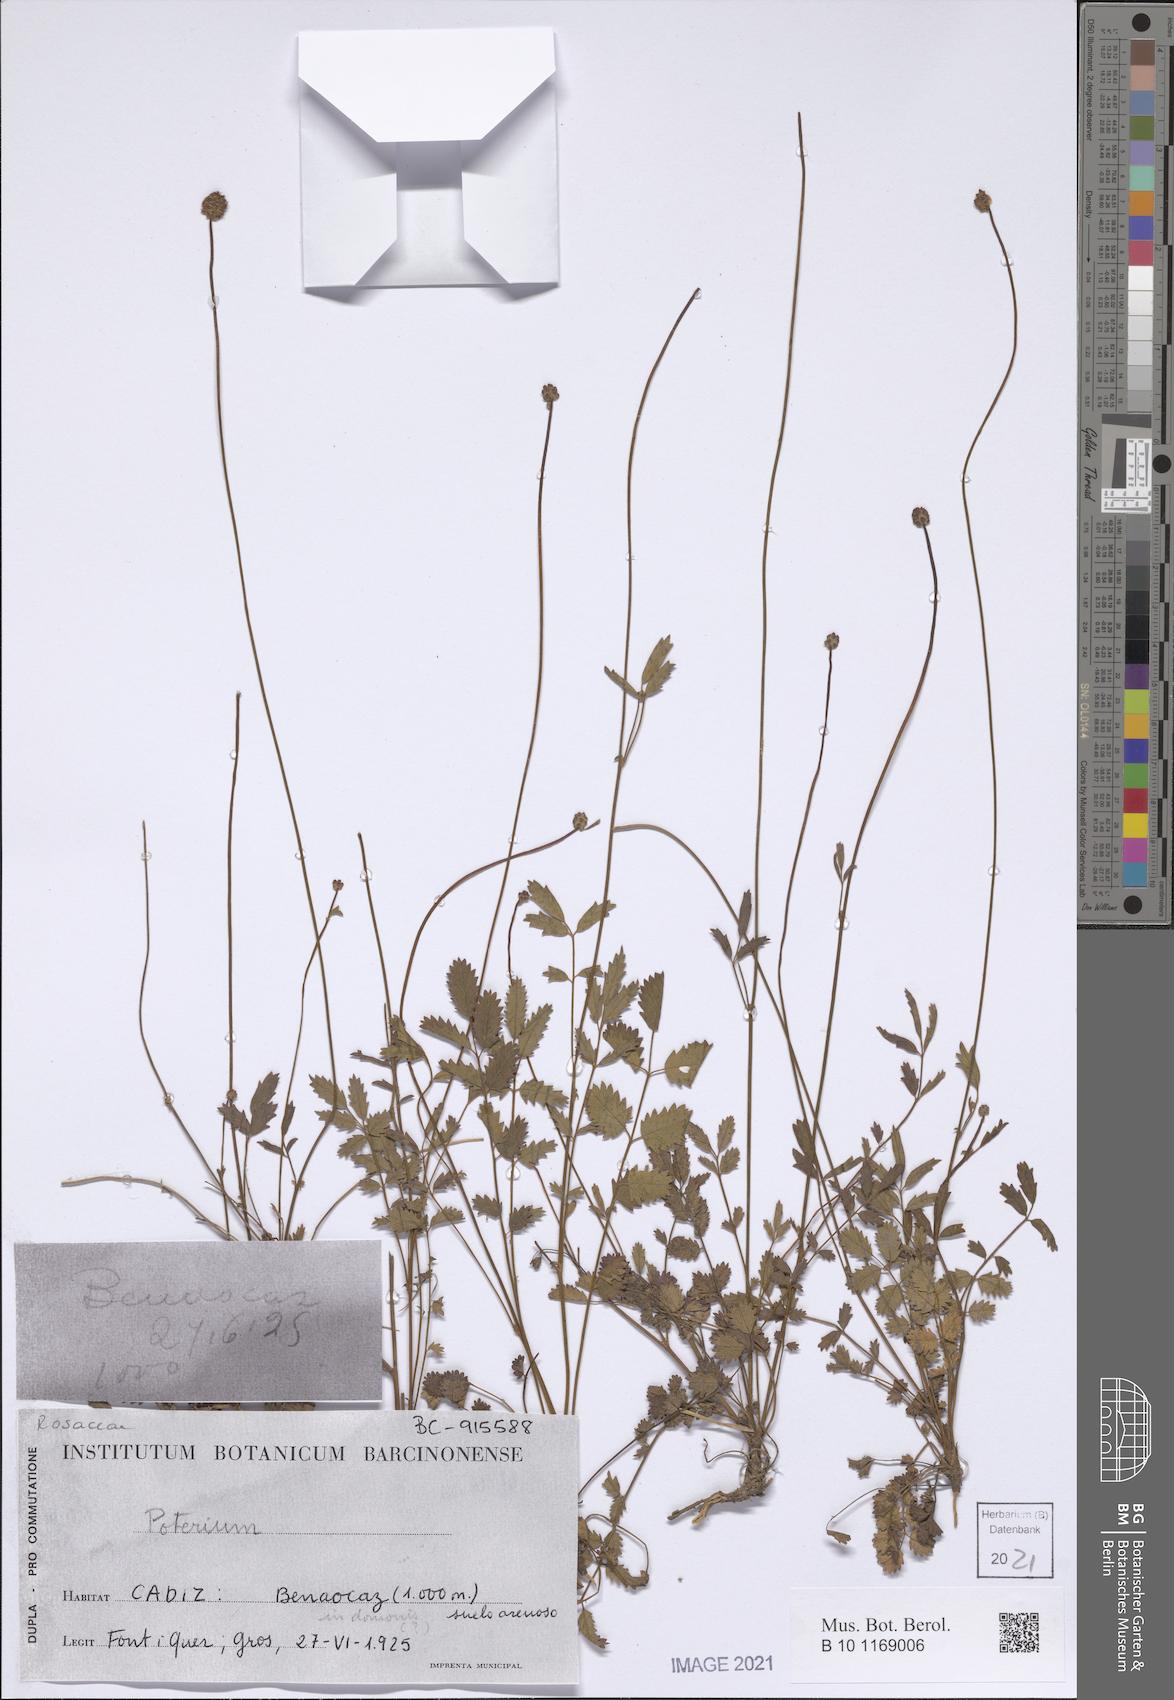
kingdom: Plantae
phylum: Tracheophyta
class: Magnoliopsida
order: Rosales
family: Rosaceae
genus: Poterium
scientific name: Poterium
